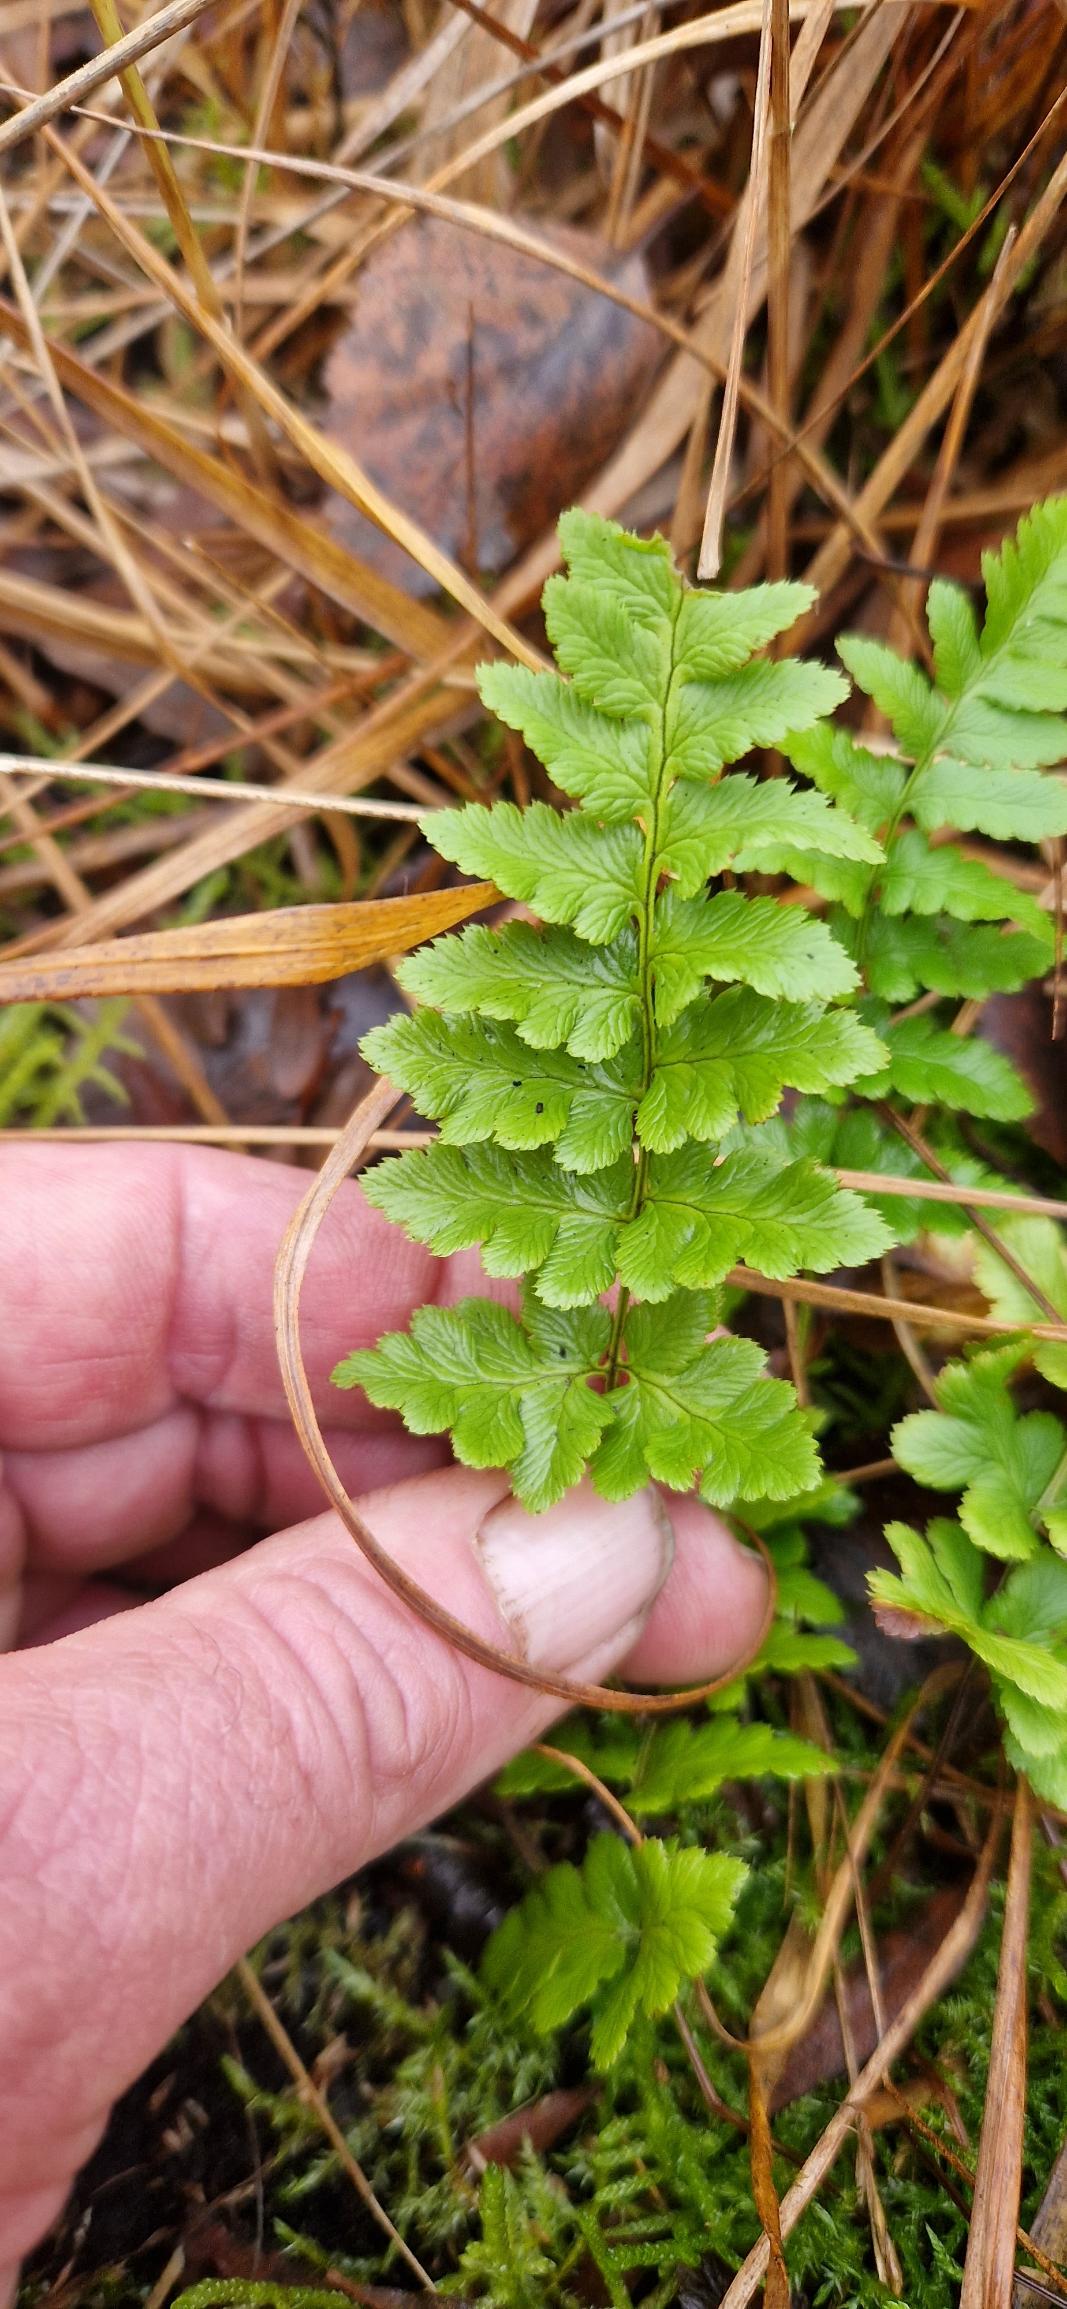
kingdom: Plantae
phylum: Tracheophyta
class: Polypodiopsida
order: Polypodiales
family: Dryopteridaceae
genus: Dryopteris
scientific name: Dryopteris cristata
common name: Butfinnet mangeløv
